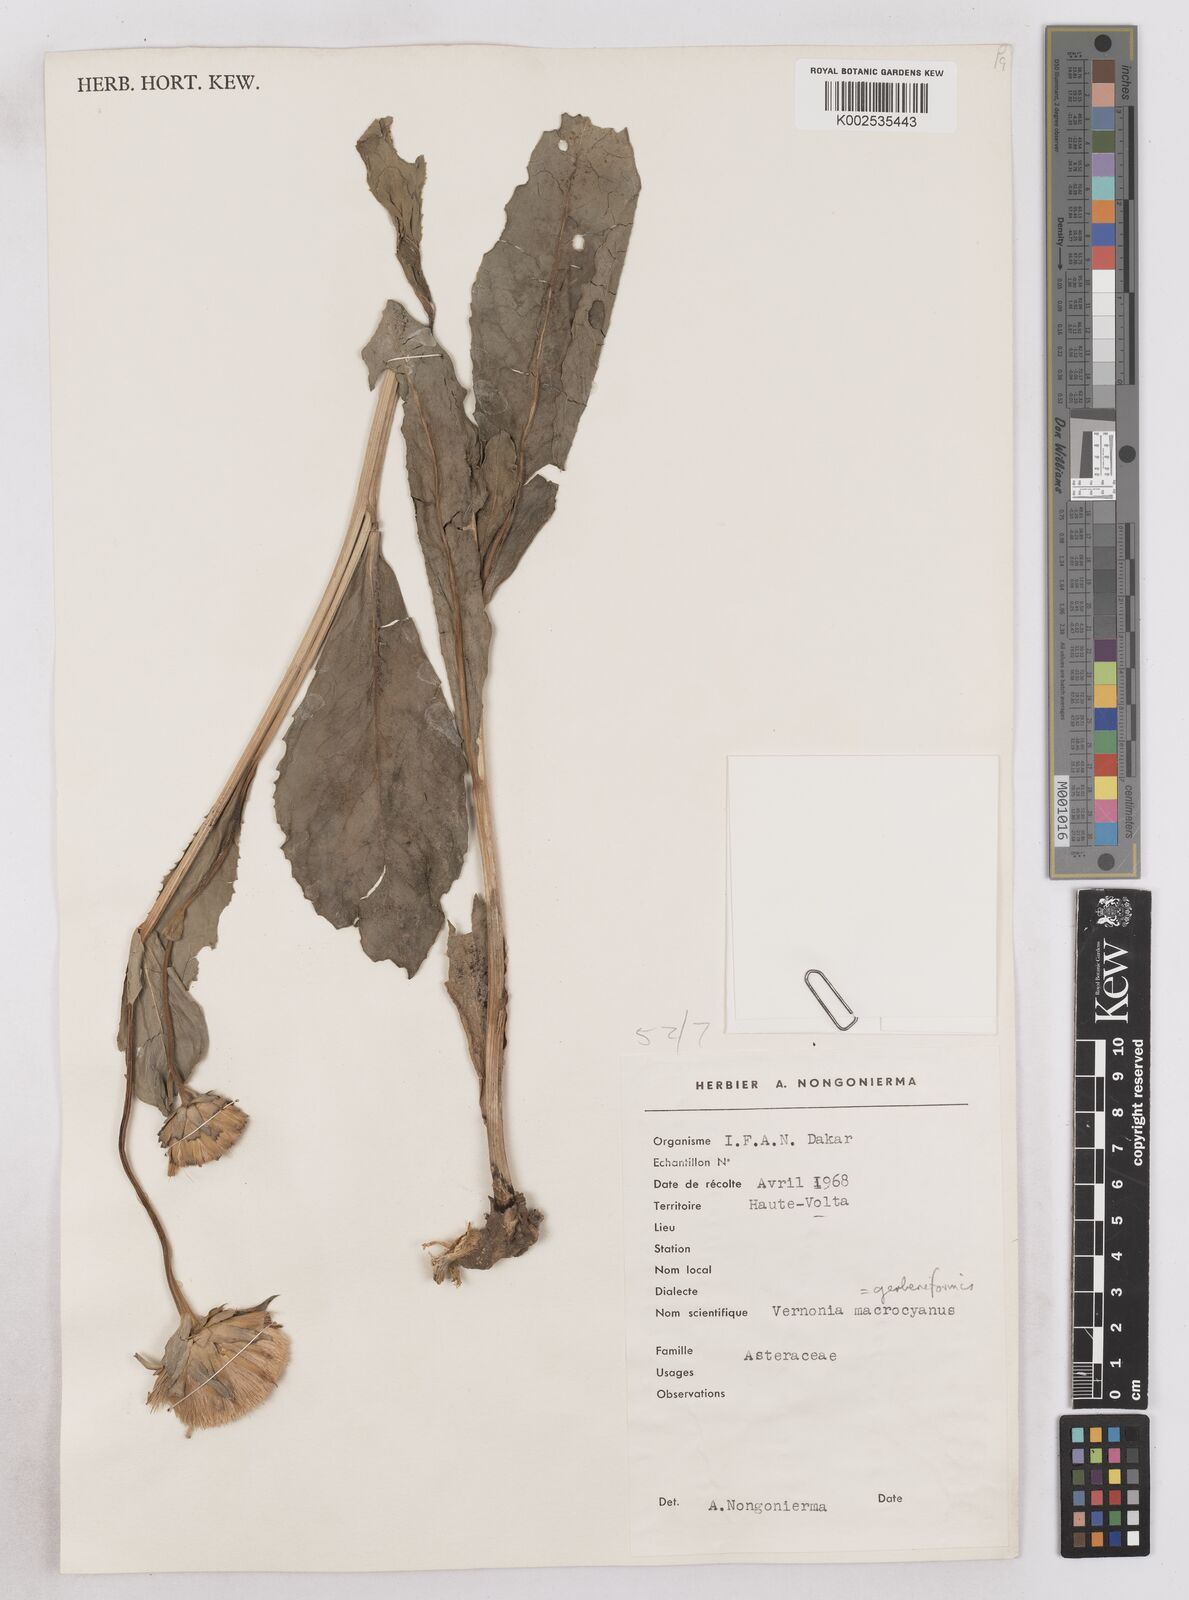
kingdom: Plantae
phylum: Tracheophyta
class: Magnoliopsida
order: Asterales
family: Asteraceae
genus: Linzia
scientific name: Linzia gerberiformis
